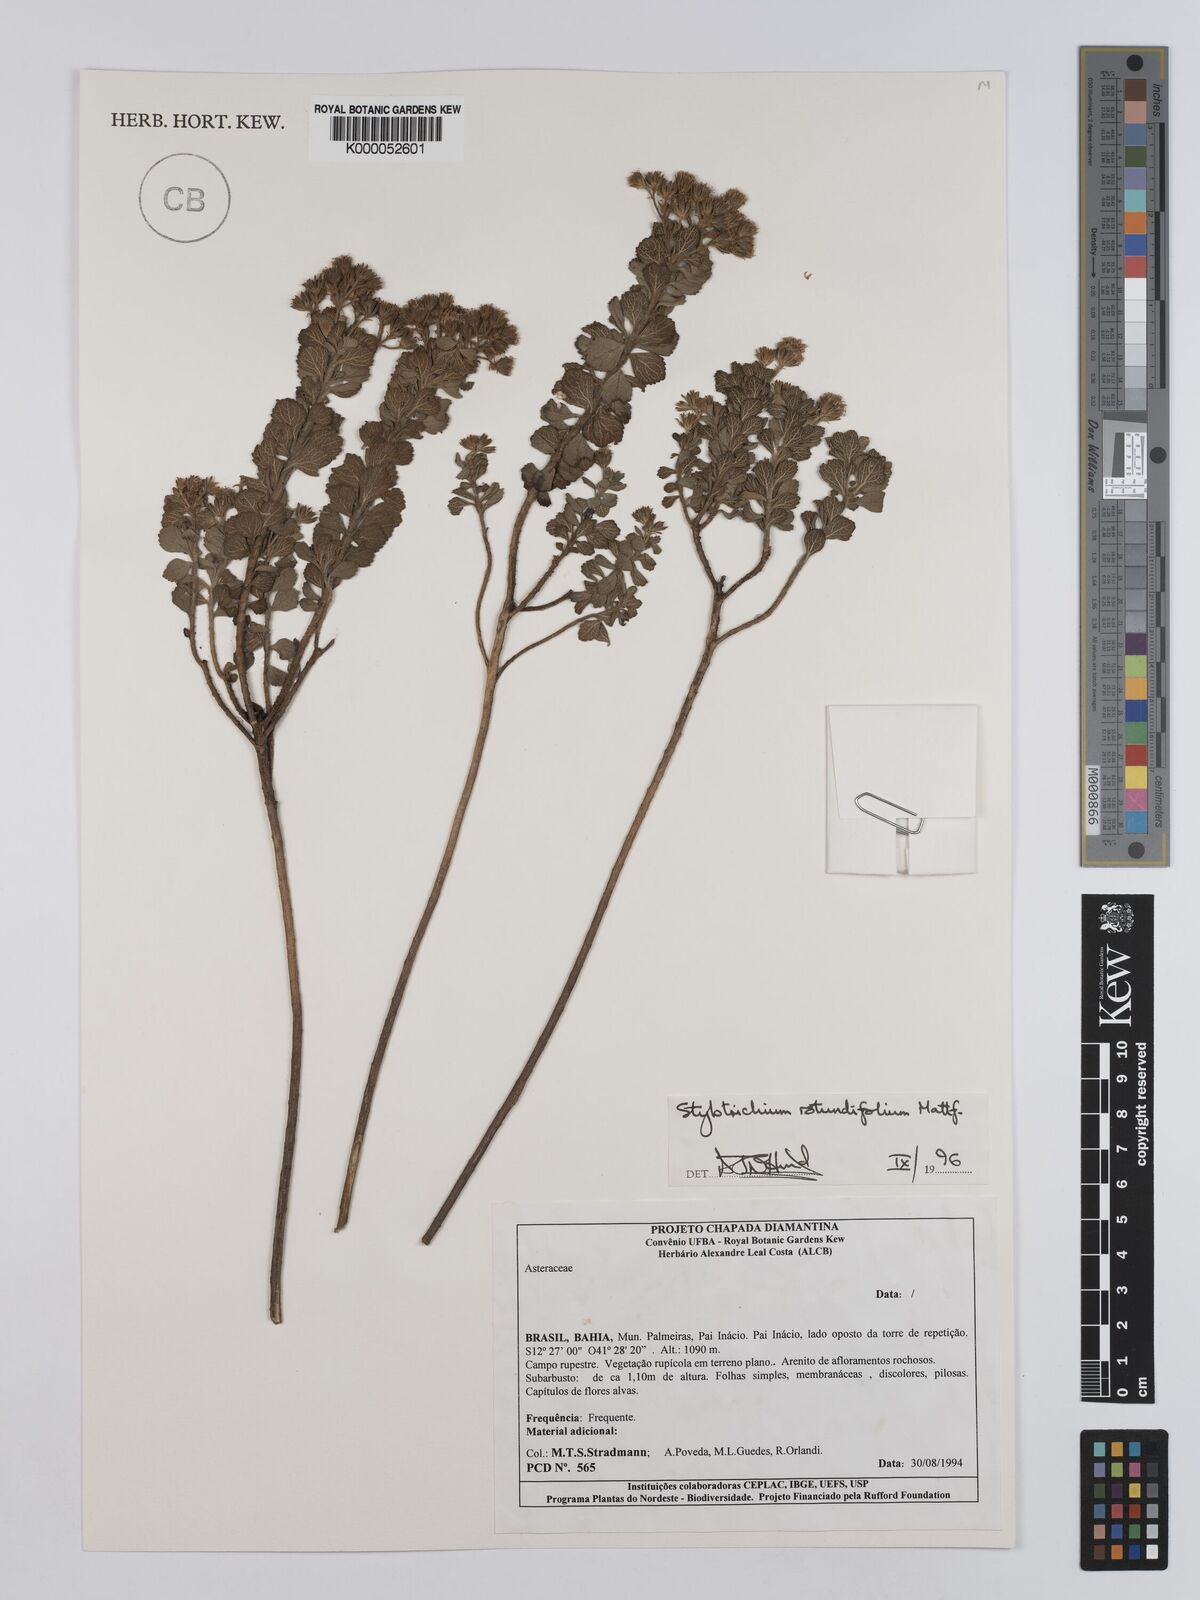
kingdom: Plantae
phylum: Tracheophyta
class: Magnoliopsida
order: Asterales
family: Asteraceae
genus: Stylotrichium
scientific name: Stylotrichium rotundifolium
